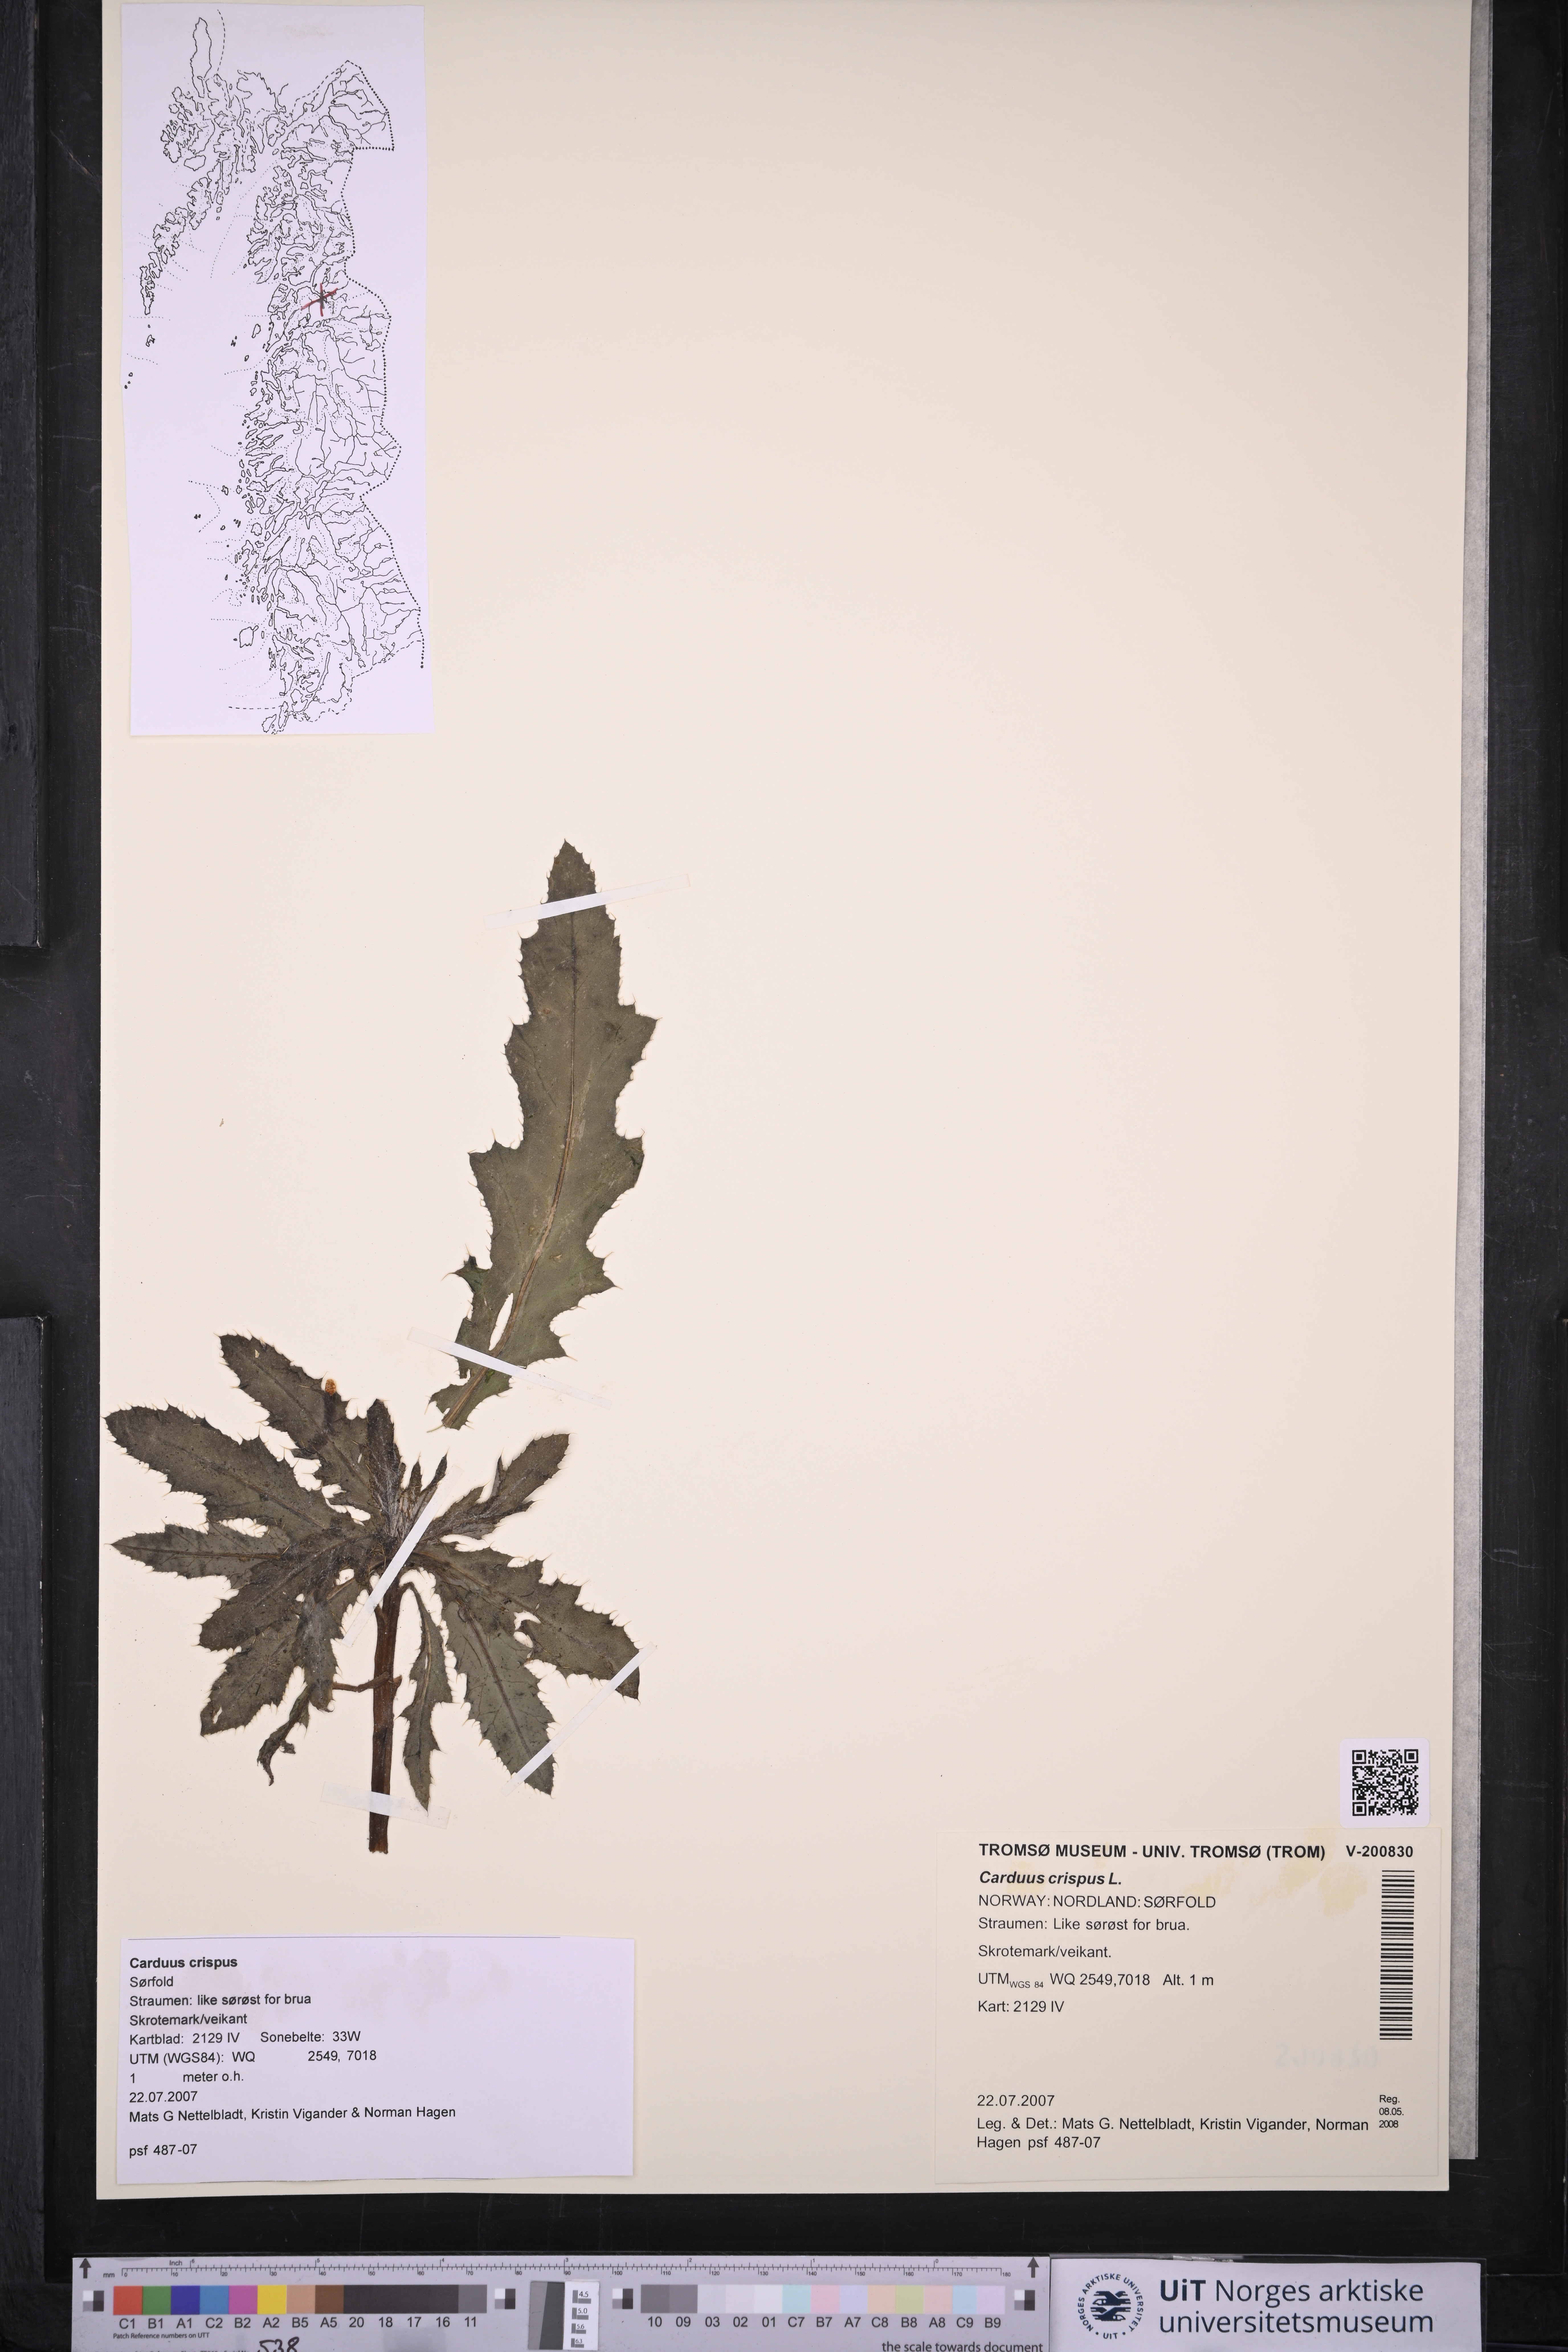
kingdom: Plantae
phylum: Tracheophyta
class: Magnoliopsida
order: Asterales
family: Asteraceae
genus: Carduus
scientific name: Carduus crispus
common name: Welted thistle
